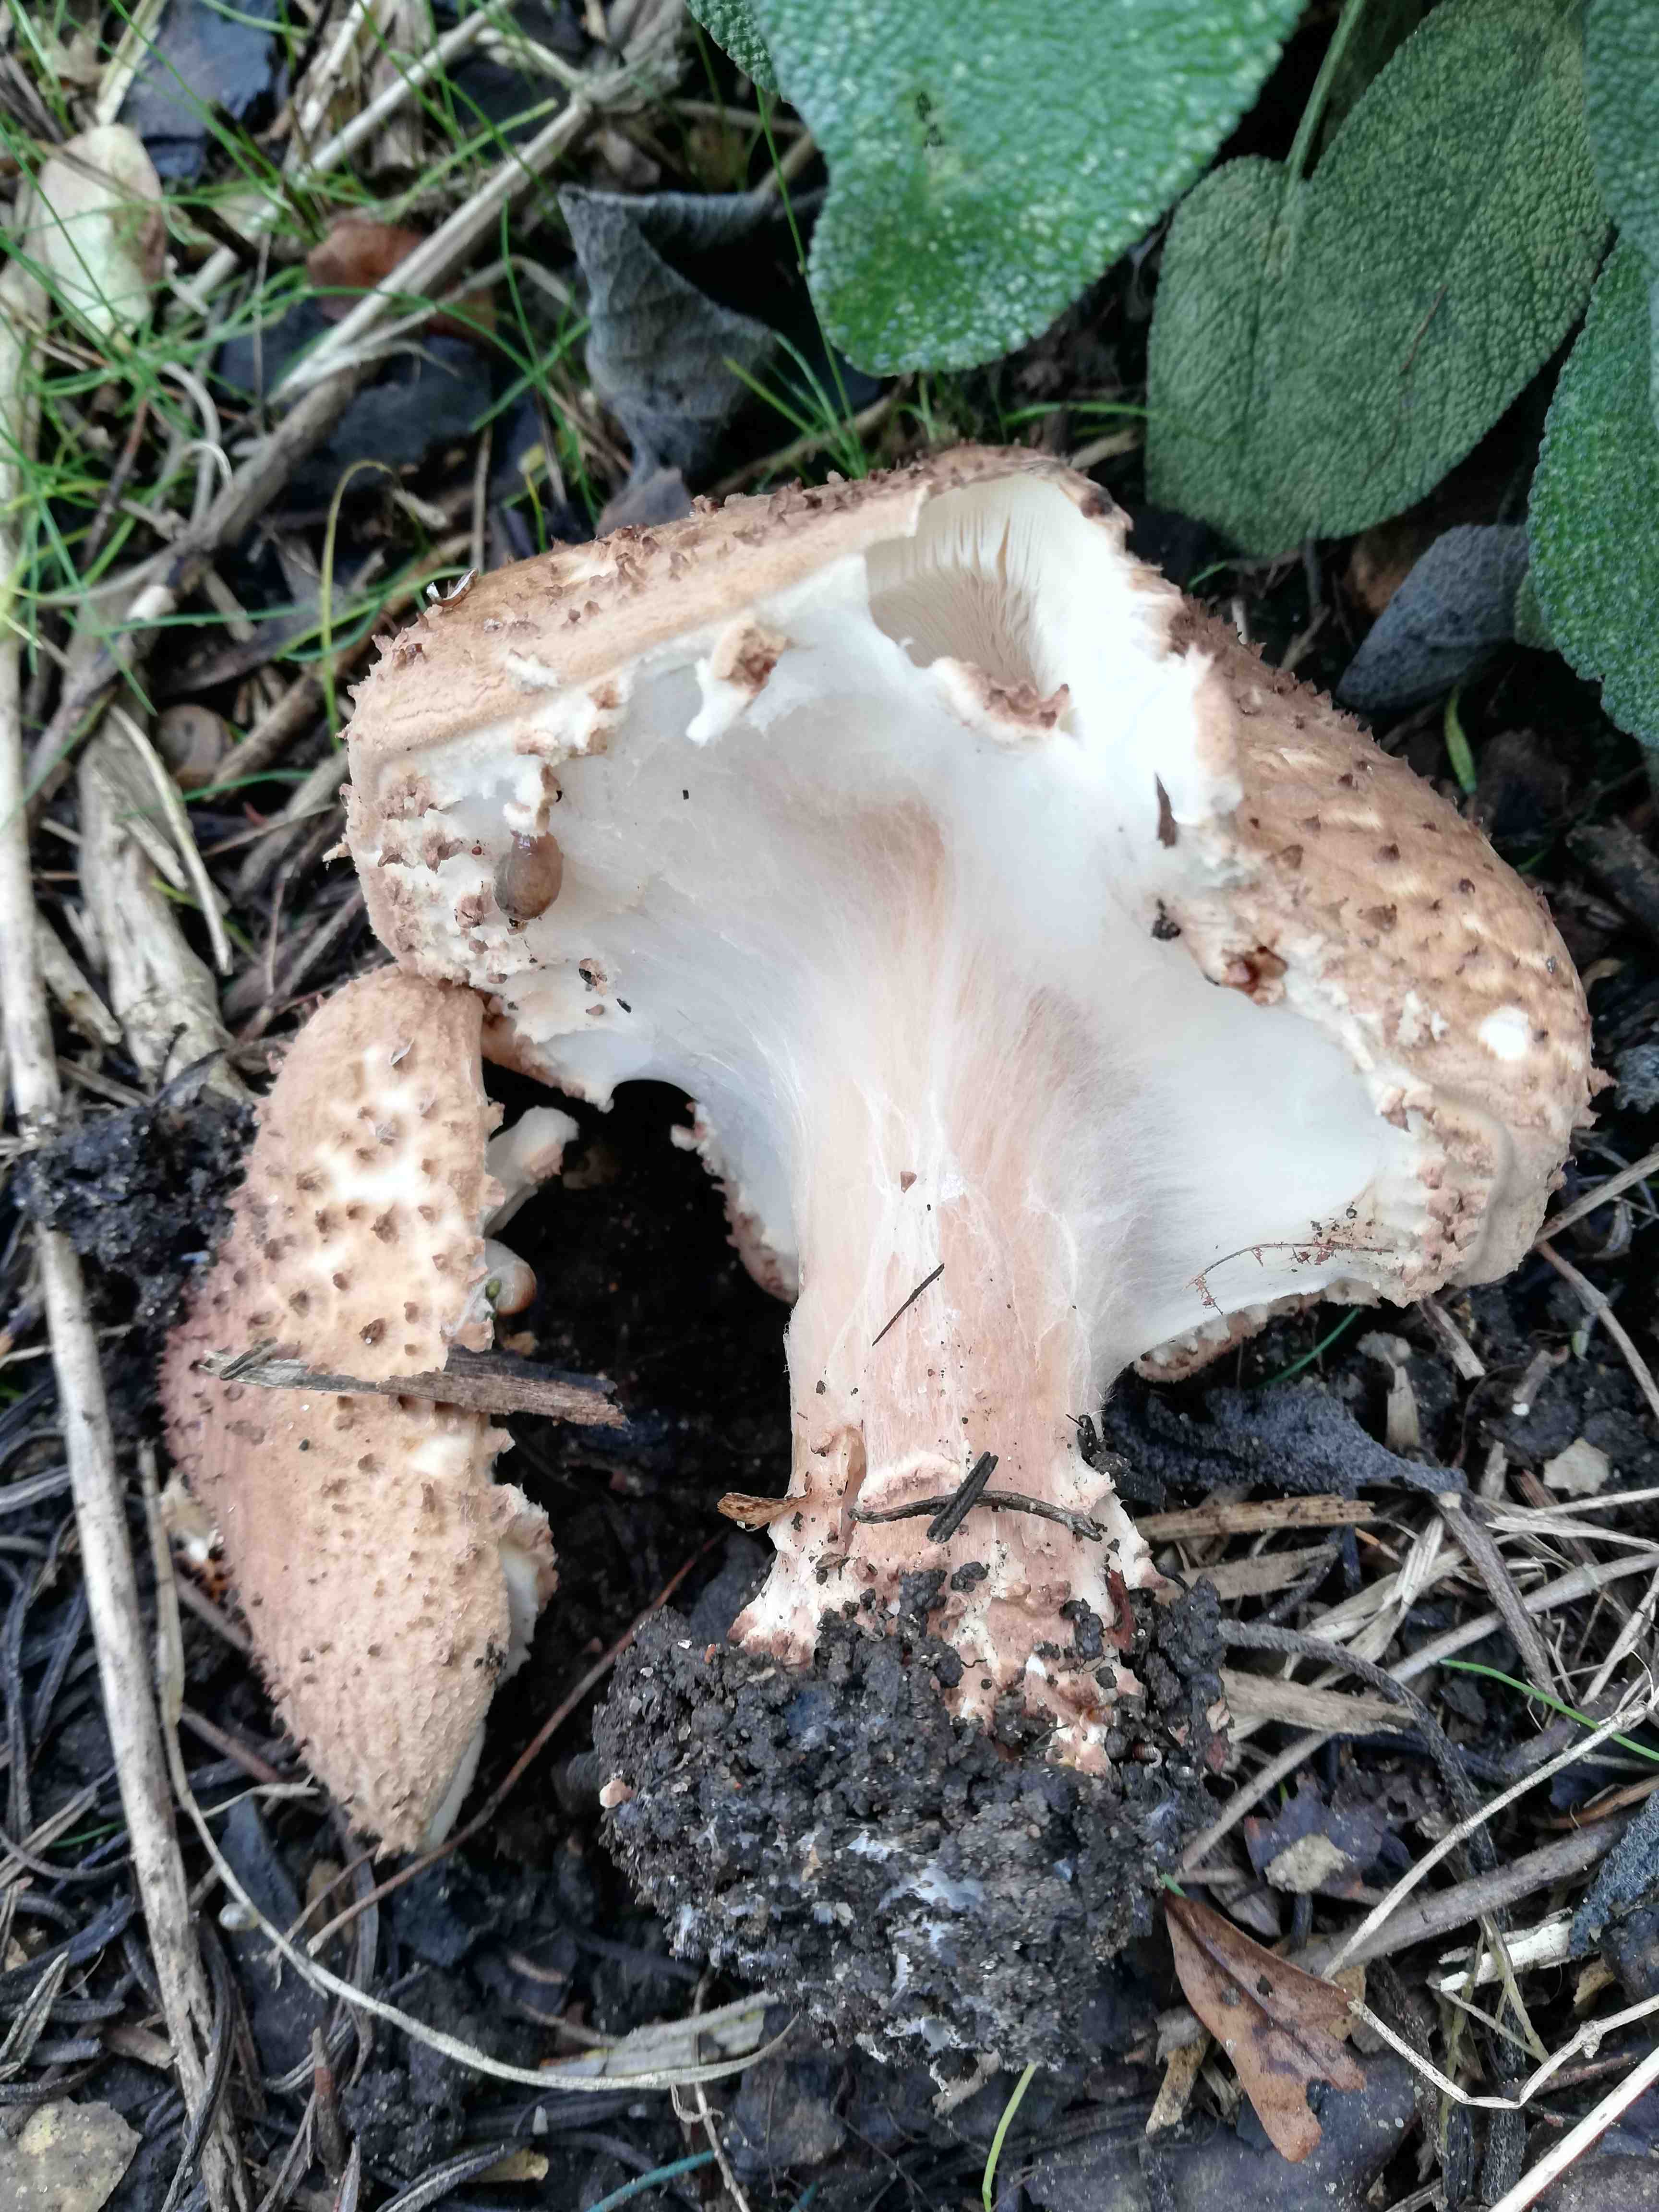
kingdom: Fungi
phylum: Basidiomycota
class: Agaricomycetes
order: Agaricales
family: Agaricaceae
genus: Echinoderma
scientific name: Echinoderma asperum
